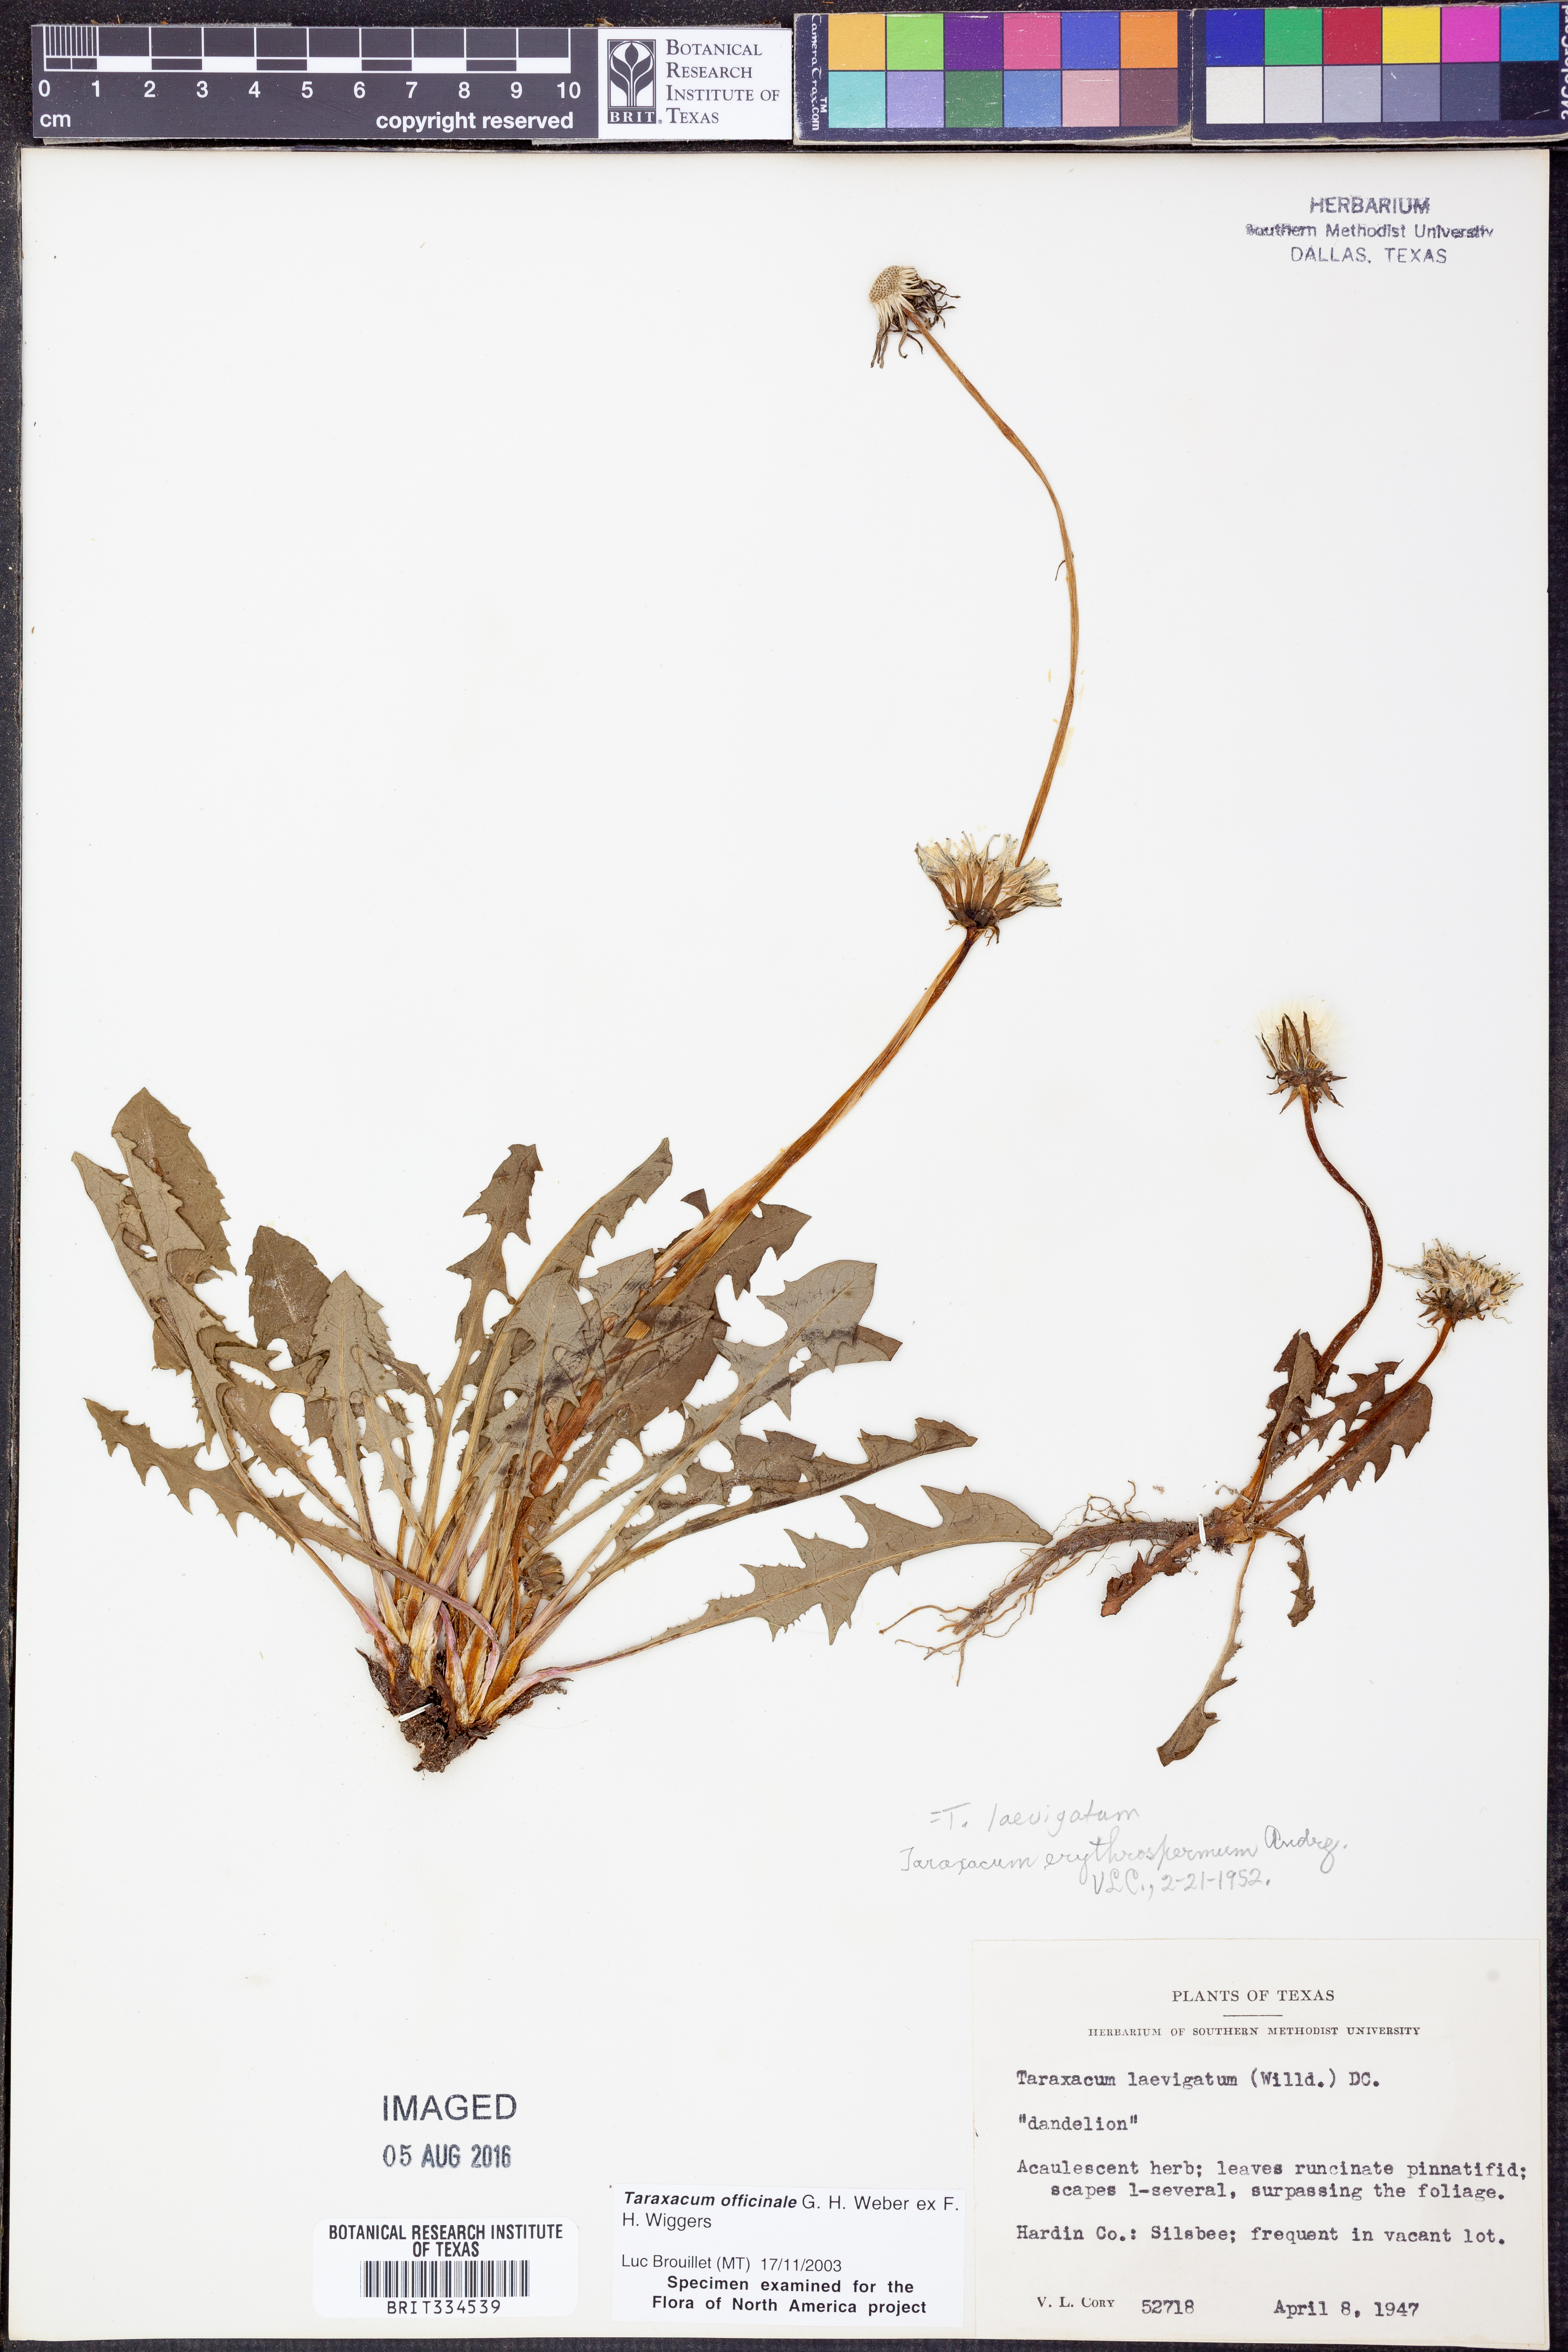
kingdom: Plantae
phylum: Tracheophyta
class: Magnoliopsida
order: Asterales
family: Asteraceae
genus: Taraxacum
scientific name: Taraxacum officinale
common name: Common dandelion
